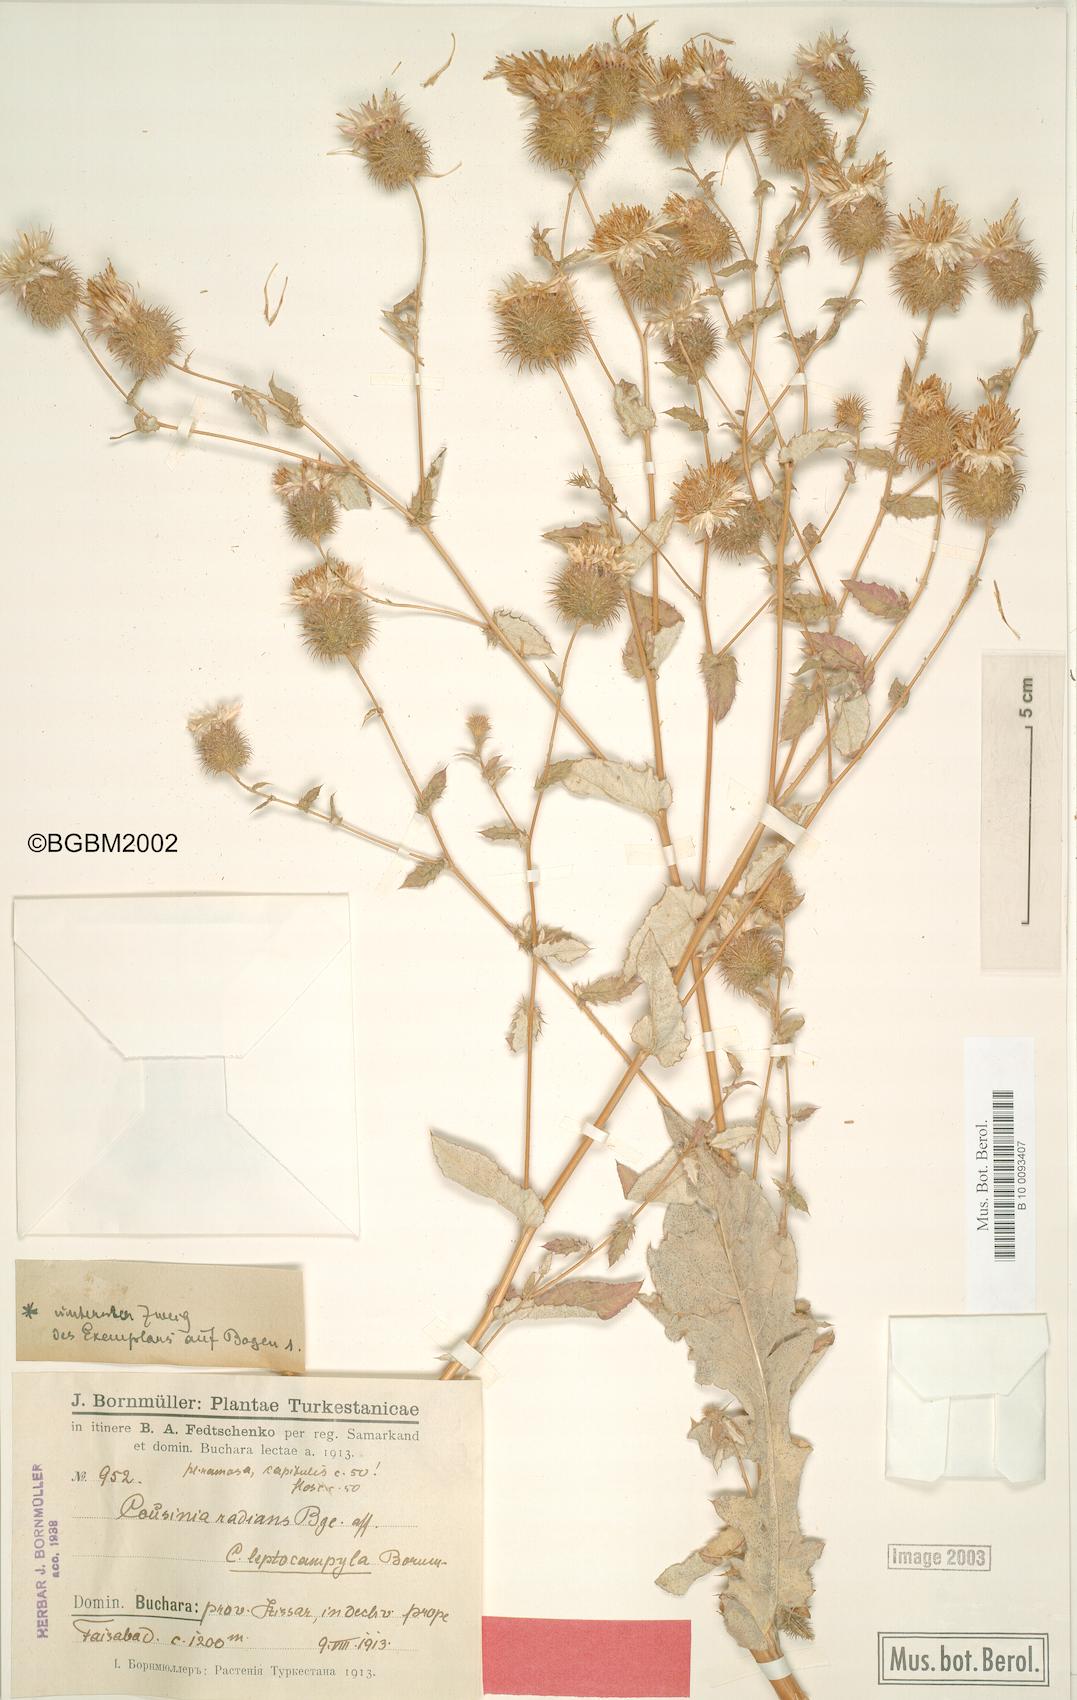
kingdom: Plantae
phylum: Tracheophyta
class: Magnoliopsida
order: Asterales
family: Asteraceae
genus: Cousinia
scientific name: Cousinia leptocampyla
